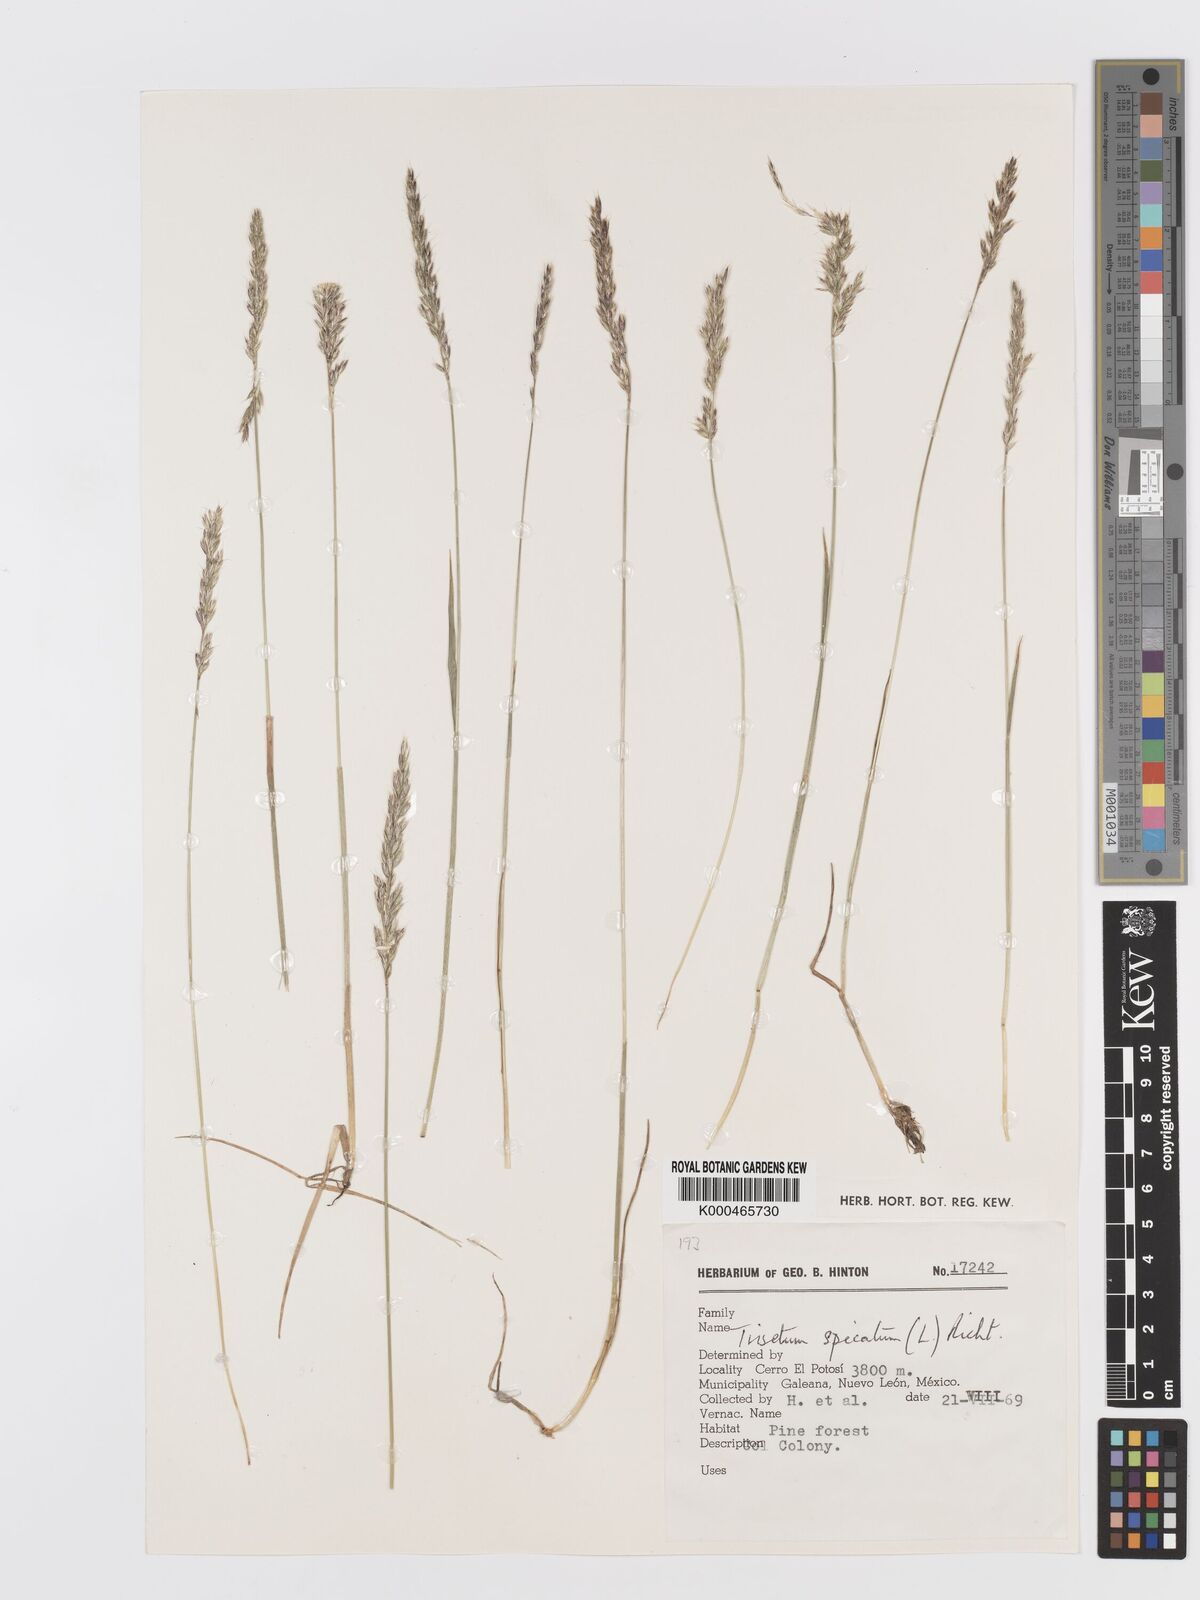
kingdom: Plantae
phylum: Tracheophyta
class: Liliopsida
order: Poales
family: Poaceae
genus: Peyritschia
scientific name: Peyritschia deyeuxioides
